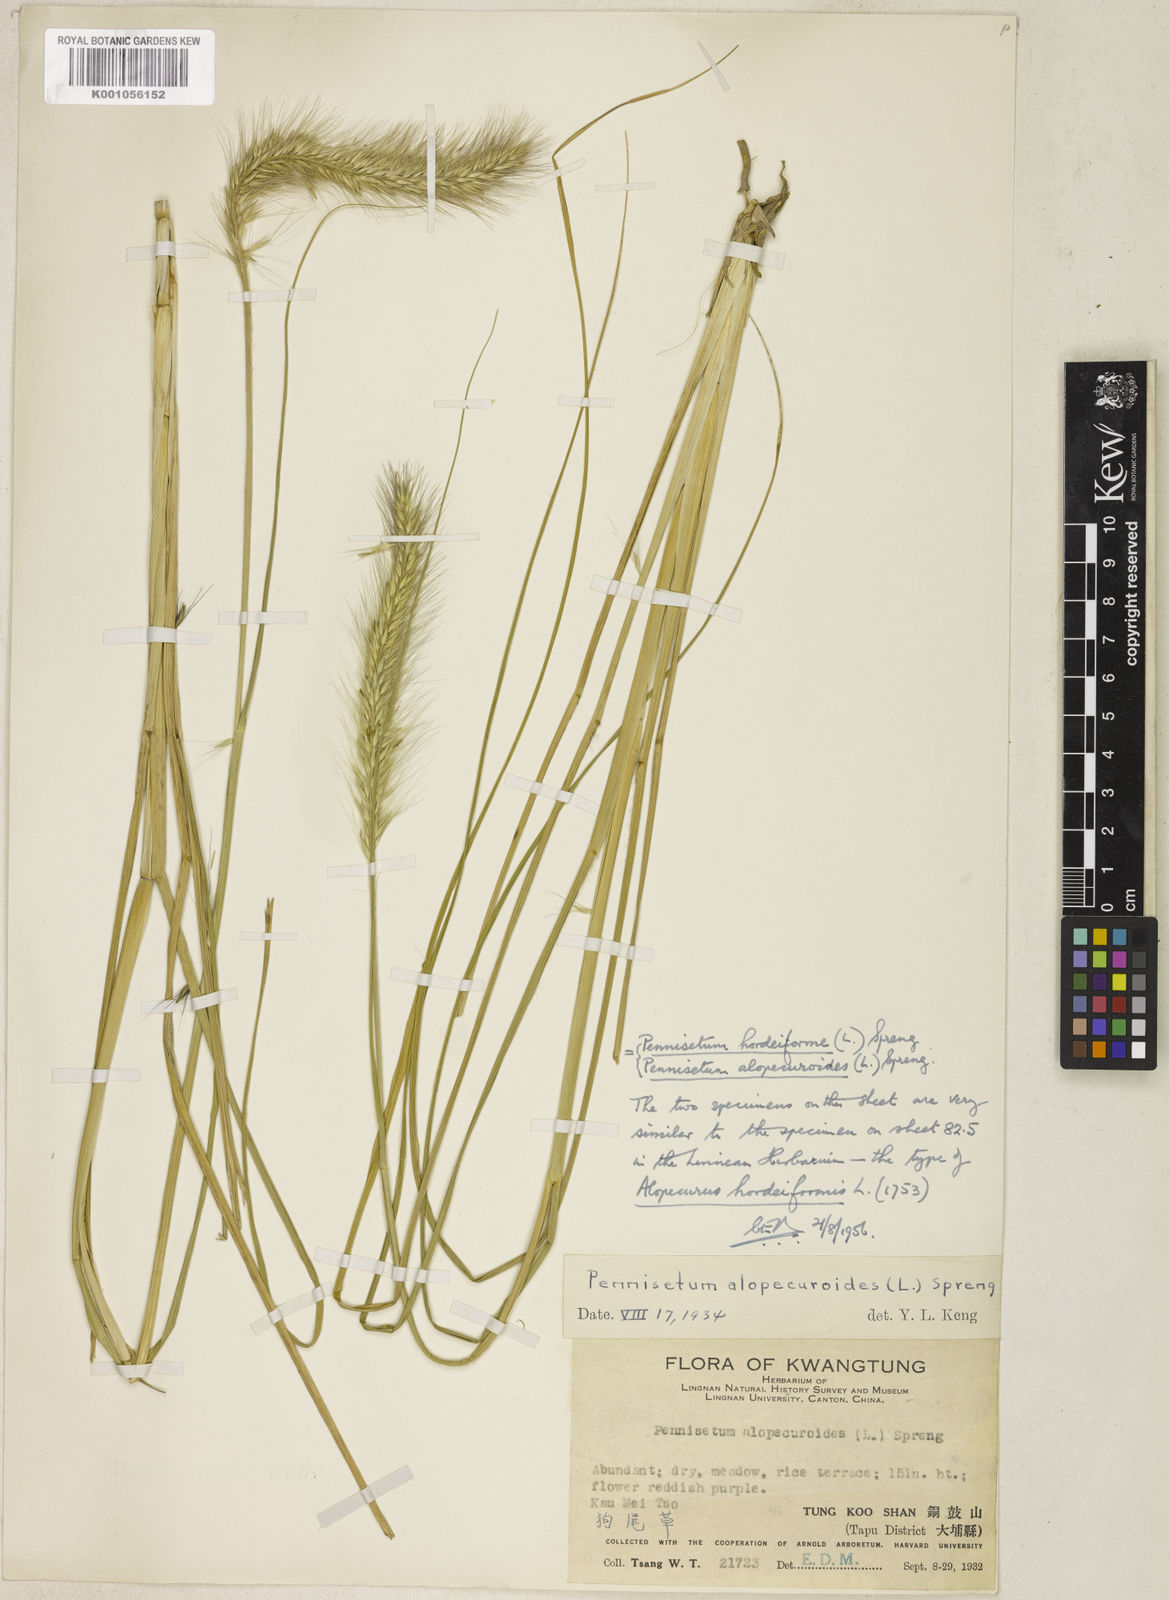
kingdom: Plantae
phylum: Tracheophyta
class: Liliopsida
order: Poales
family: Poaceae
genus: Cenchrus
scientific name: Cenchrus alopecuroides
